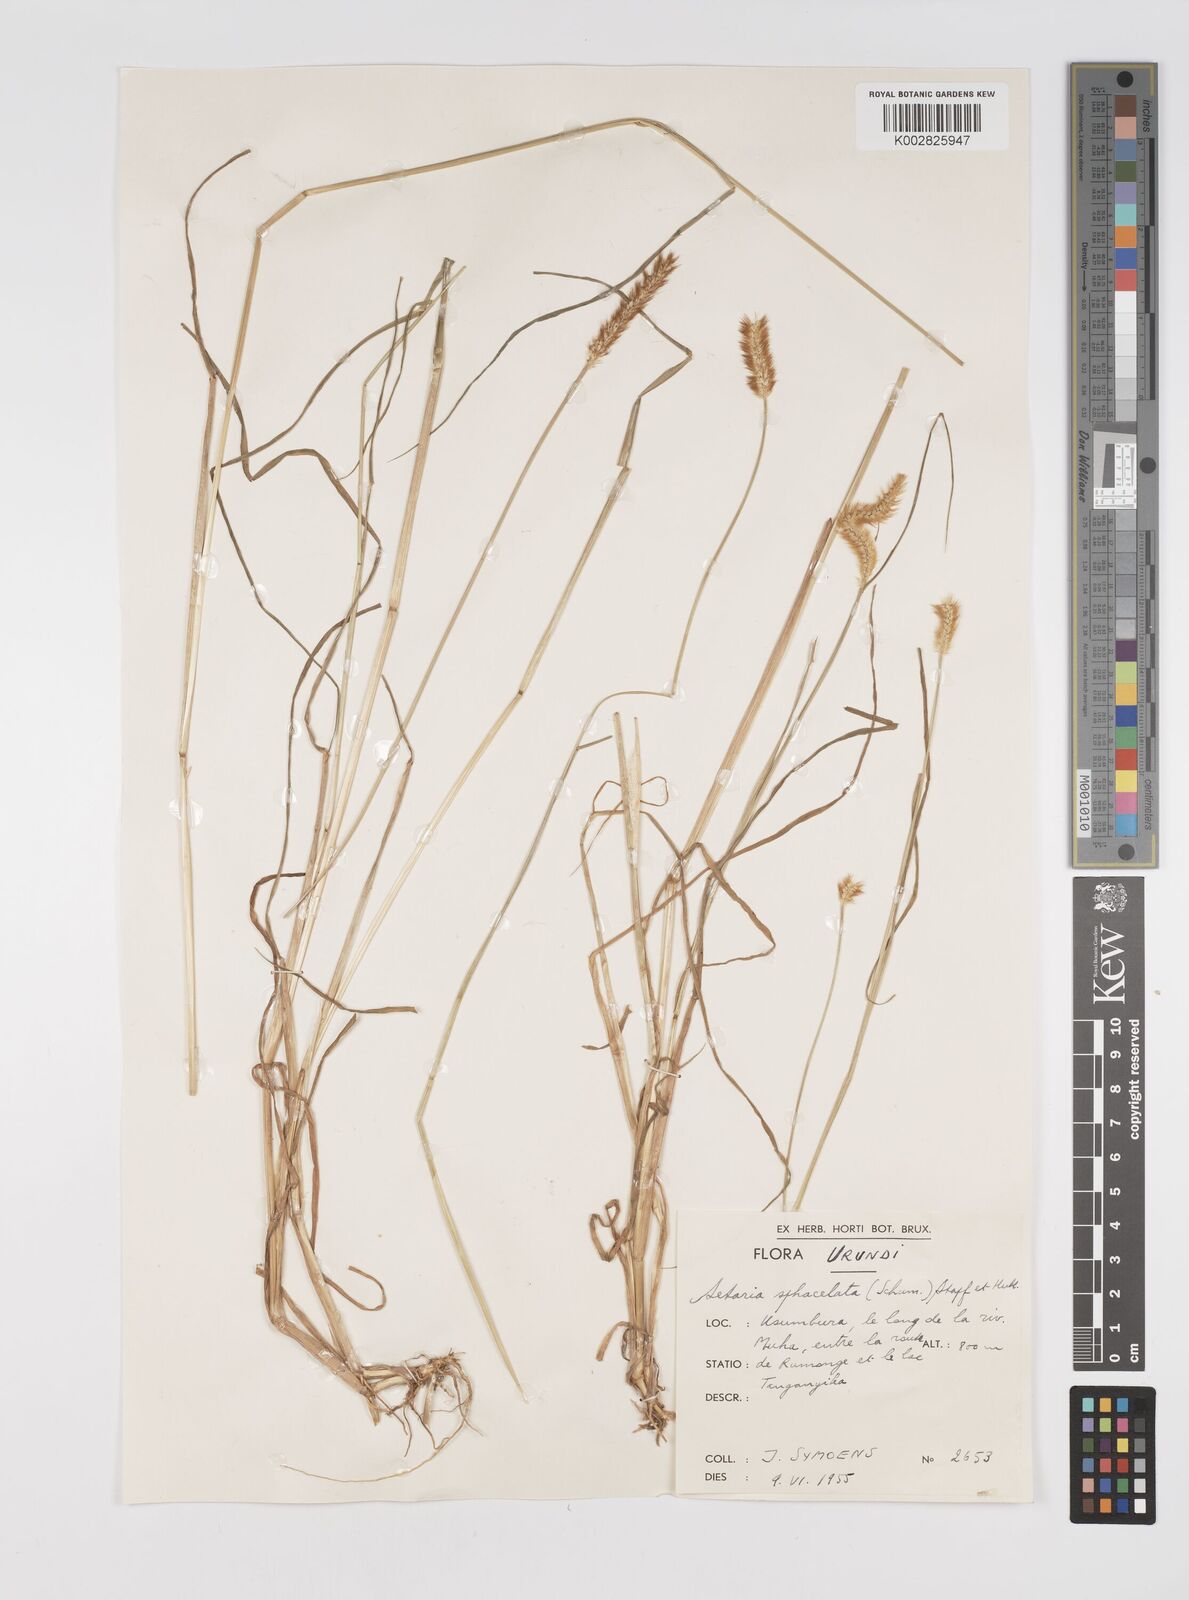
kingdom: Plantae
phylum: Tracheophyta
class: Liliopsida
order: Poales
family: Poaceae
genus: Setaria
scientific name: Setaria pumila
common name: Yellow bristle-grass
